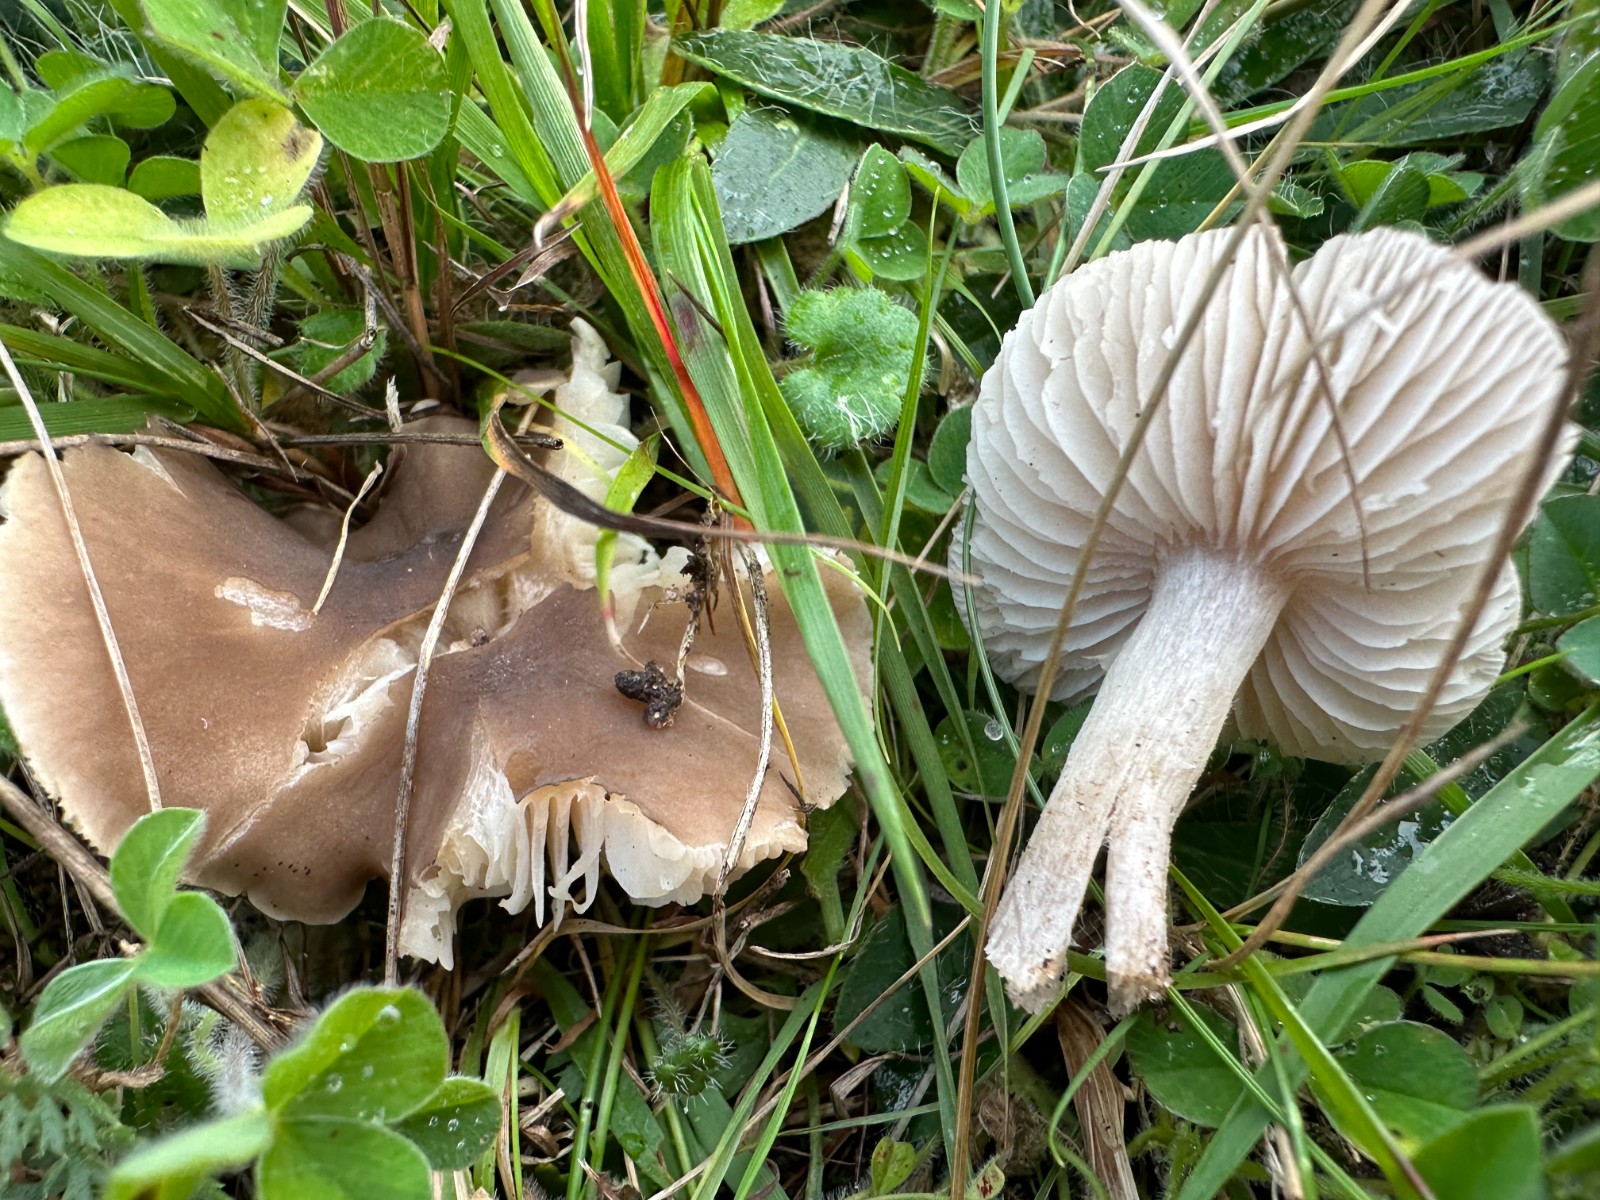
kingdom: Fungi
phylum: Basidiomycota
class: Agaricomycetes
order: Agaricales
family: Tricholomataceae
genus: Dermoloma
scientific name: Dermoloma cuneifolium
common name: eng-nonnehat
